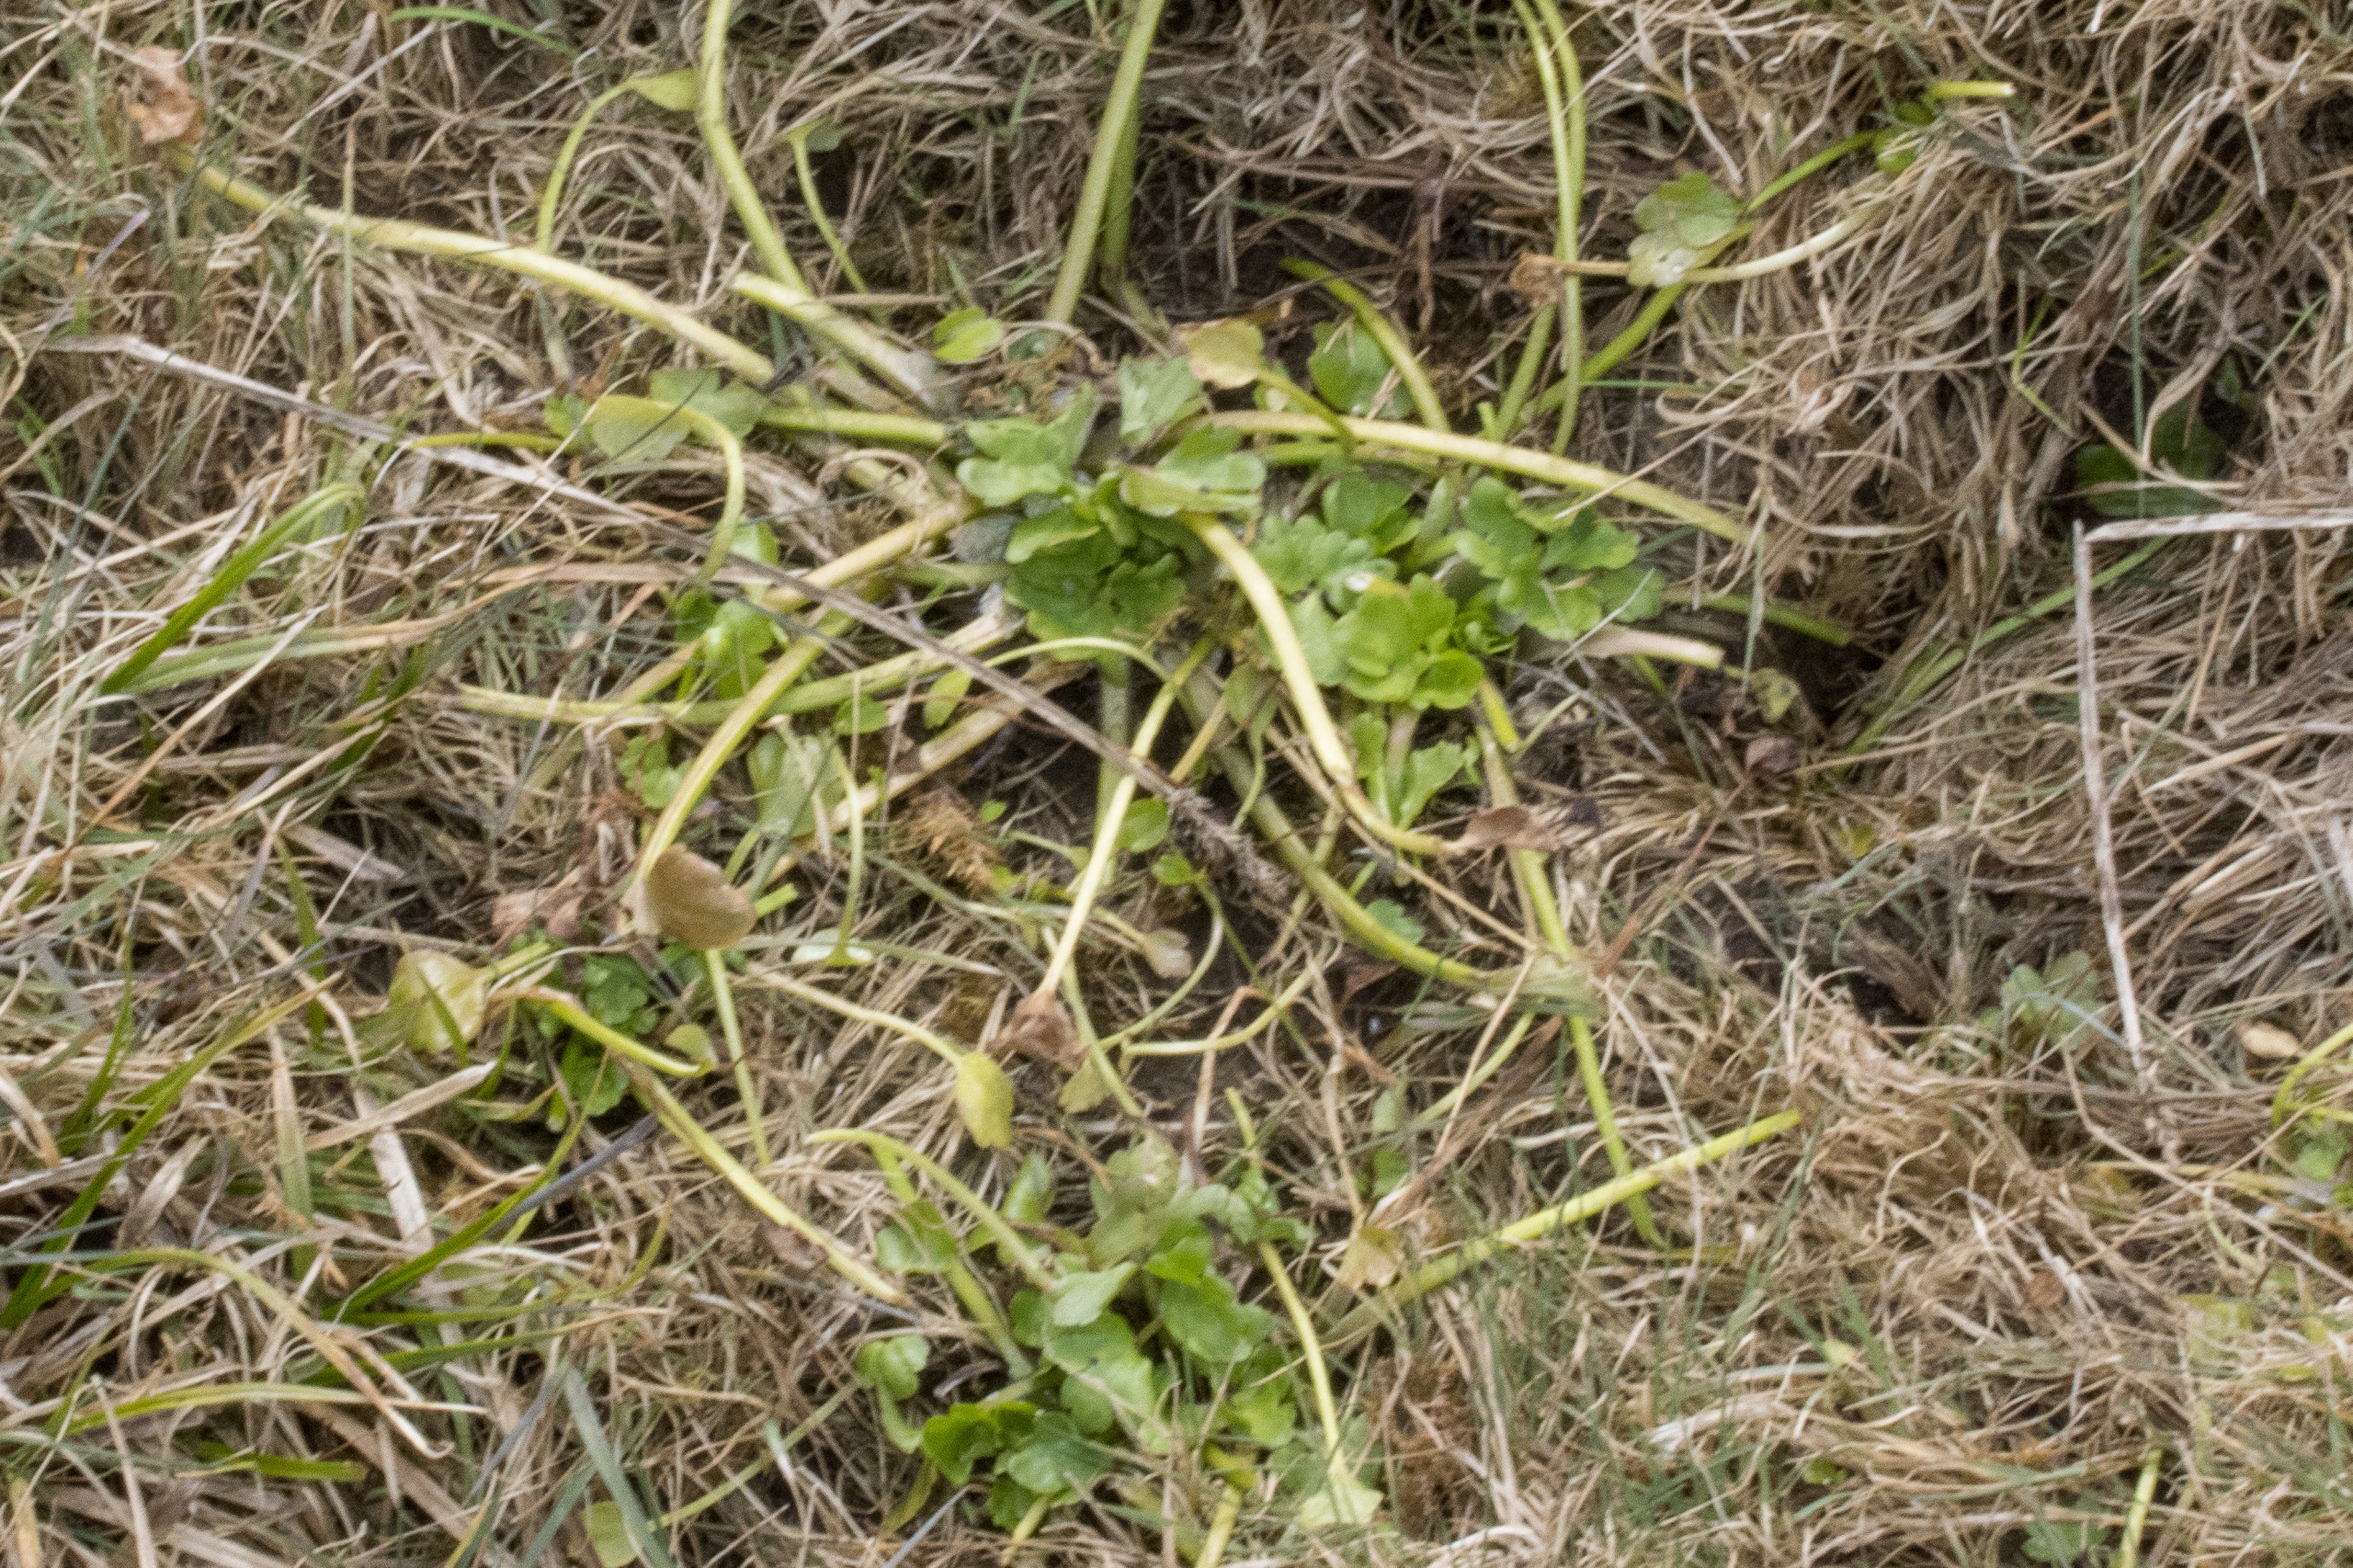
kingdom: Plantae
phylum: Tracheophyta
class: Magnoliopsida
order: Ranunculales
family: Ranunculaceae
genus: Ranunculus
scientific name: Ranunculus aquatilis
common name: Almindelig vandranunkel
